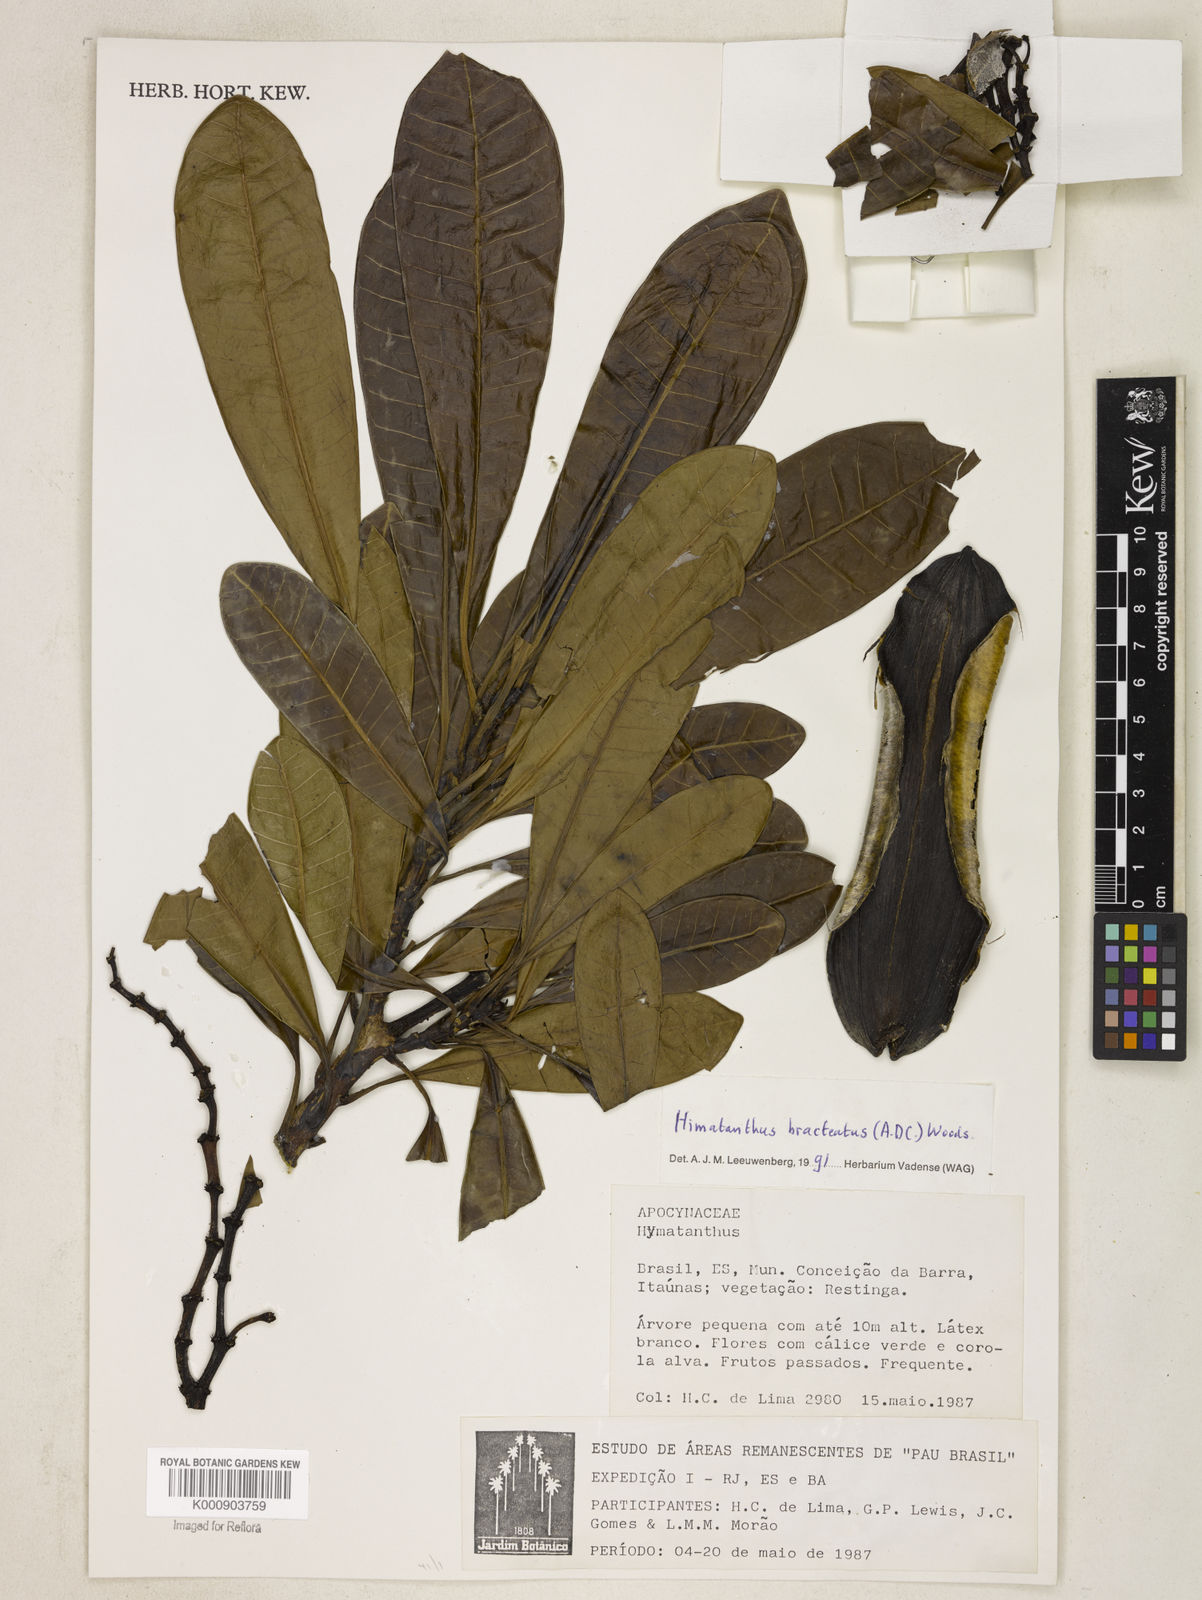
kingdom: Plantae
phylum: Tracheophyta
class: Magnoliopsida
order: Gentianales
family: Apocynaceae
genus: Himatanthus
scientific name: Himatanthus bracteatus
